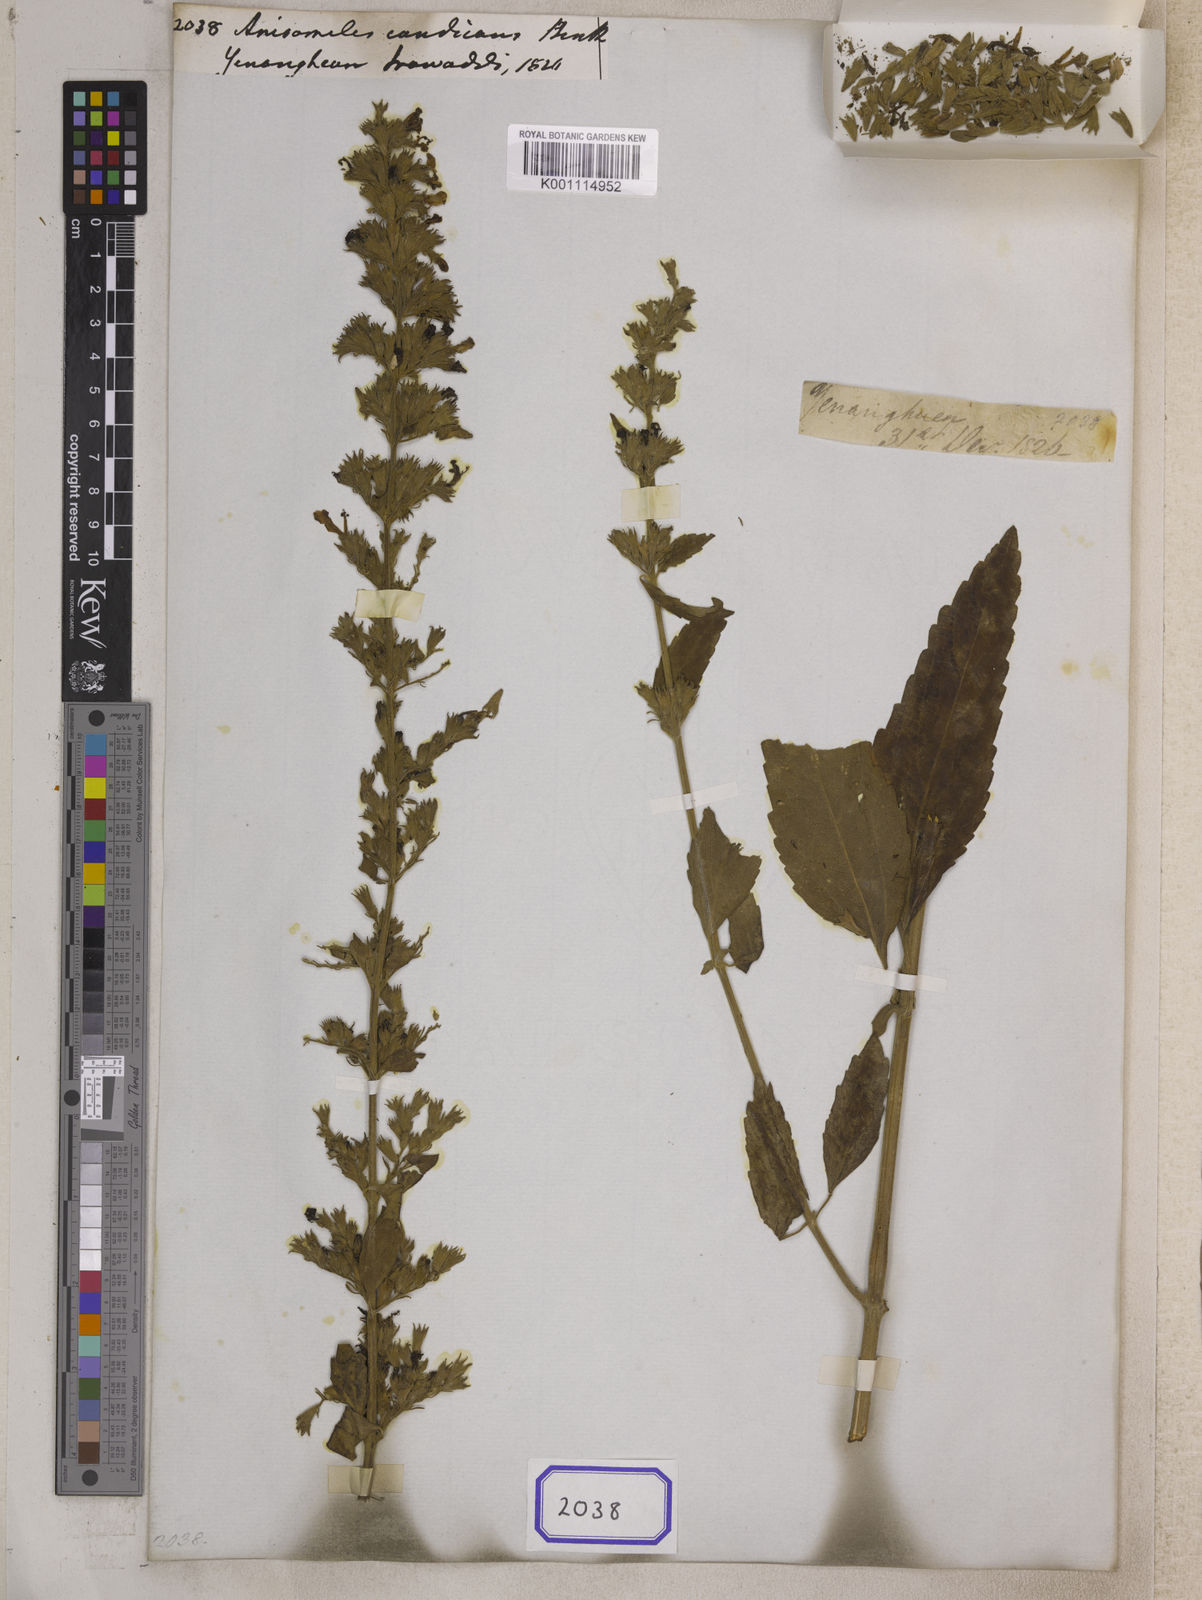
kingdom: Plantae
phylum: Tracheophyta
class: Magnoliopsida
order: Lamiales
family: Lamiaceae
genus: Anisomeles
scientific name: Anisomeles candicans
